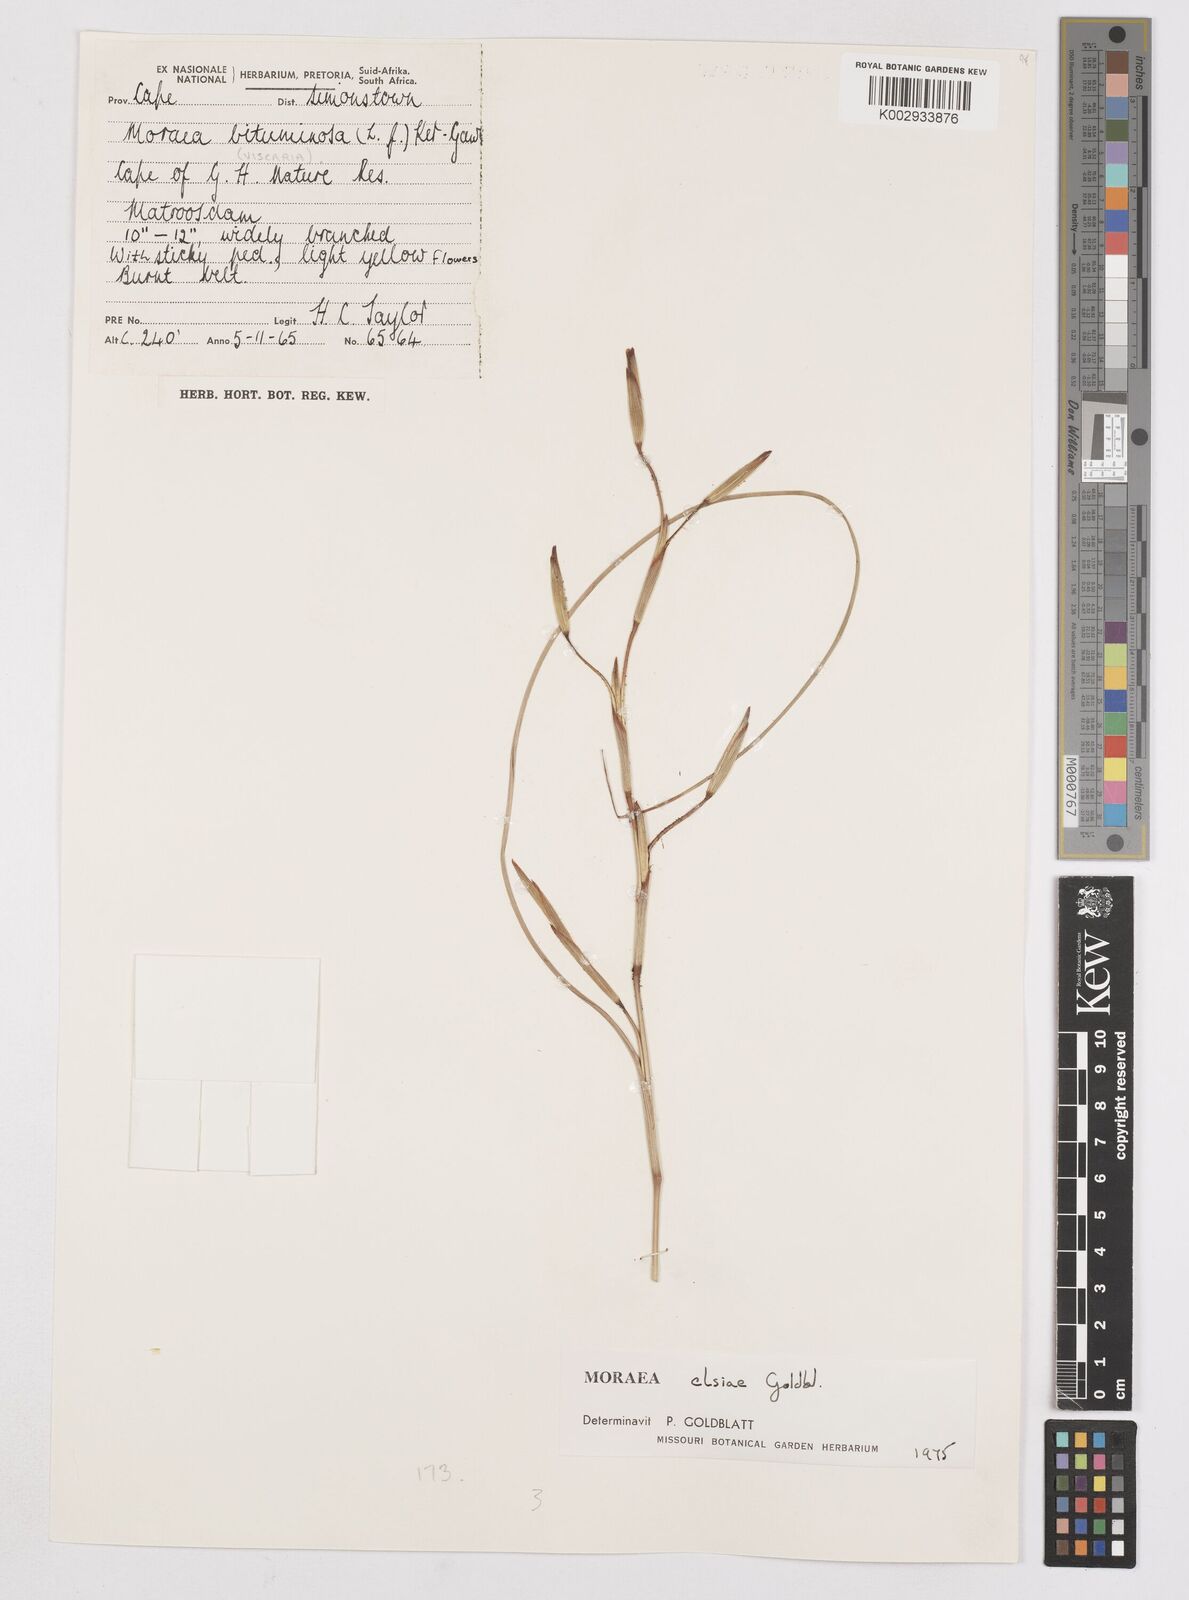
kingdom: Plantae
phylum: Tracheophyta
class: Liliopsida
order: Asparagales
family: Iridaceae
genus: Moraea
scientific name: Moraea elsiae
